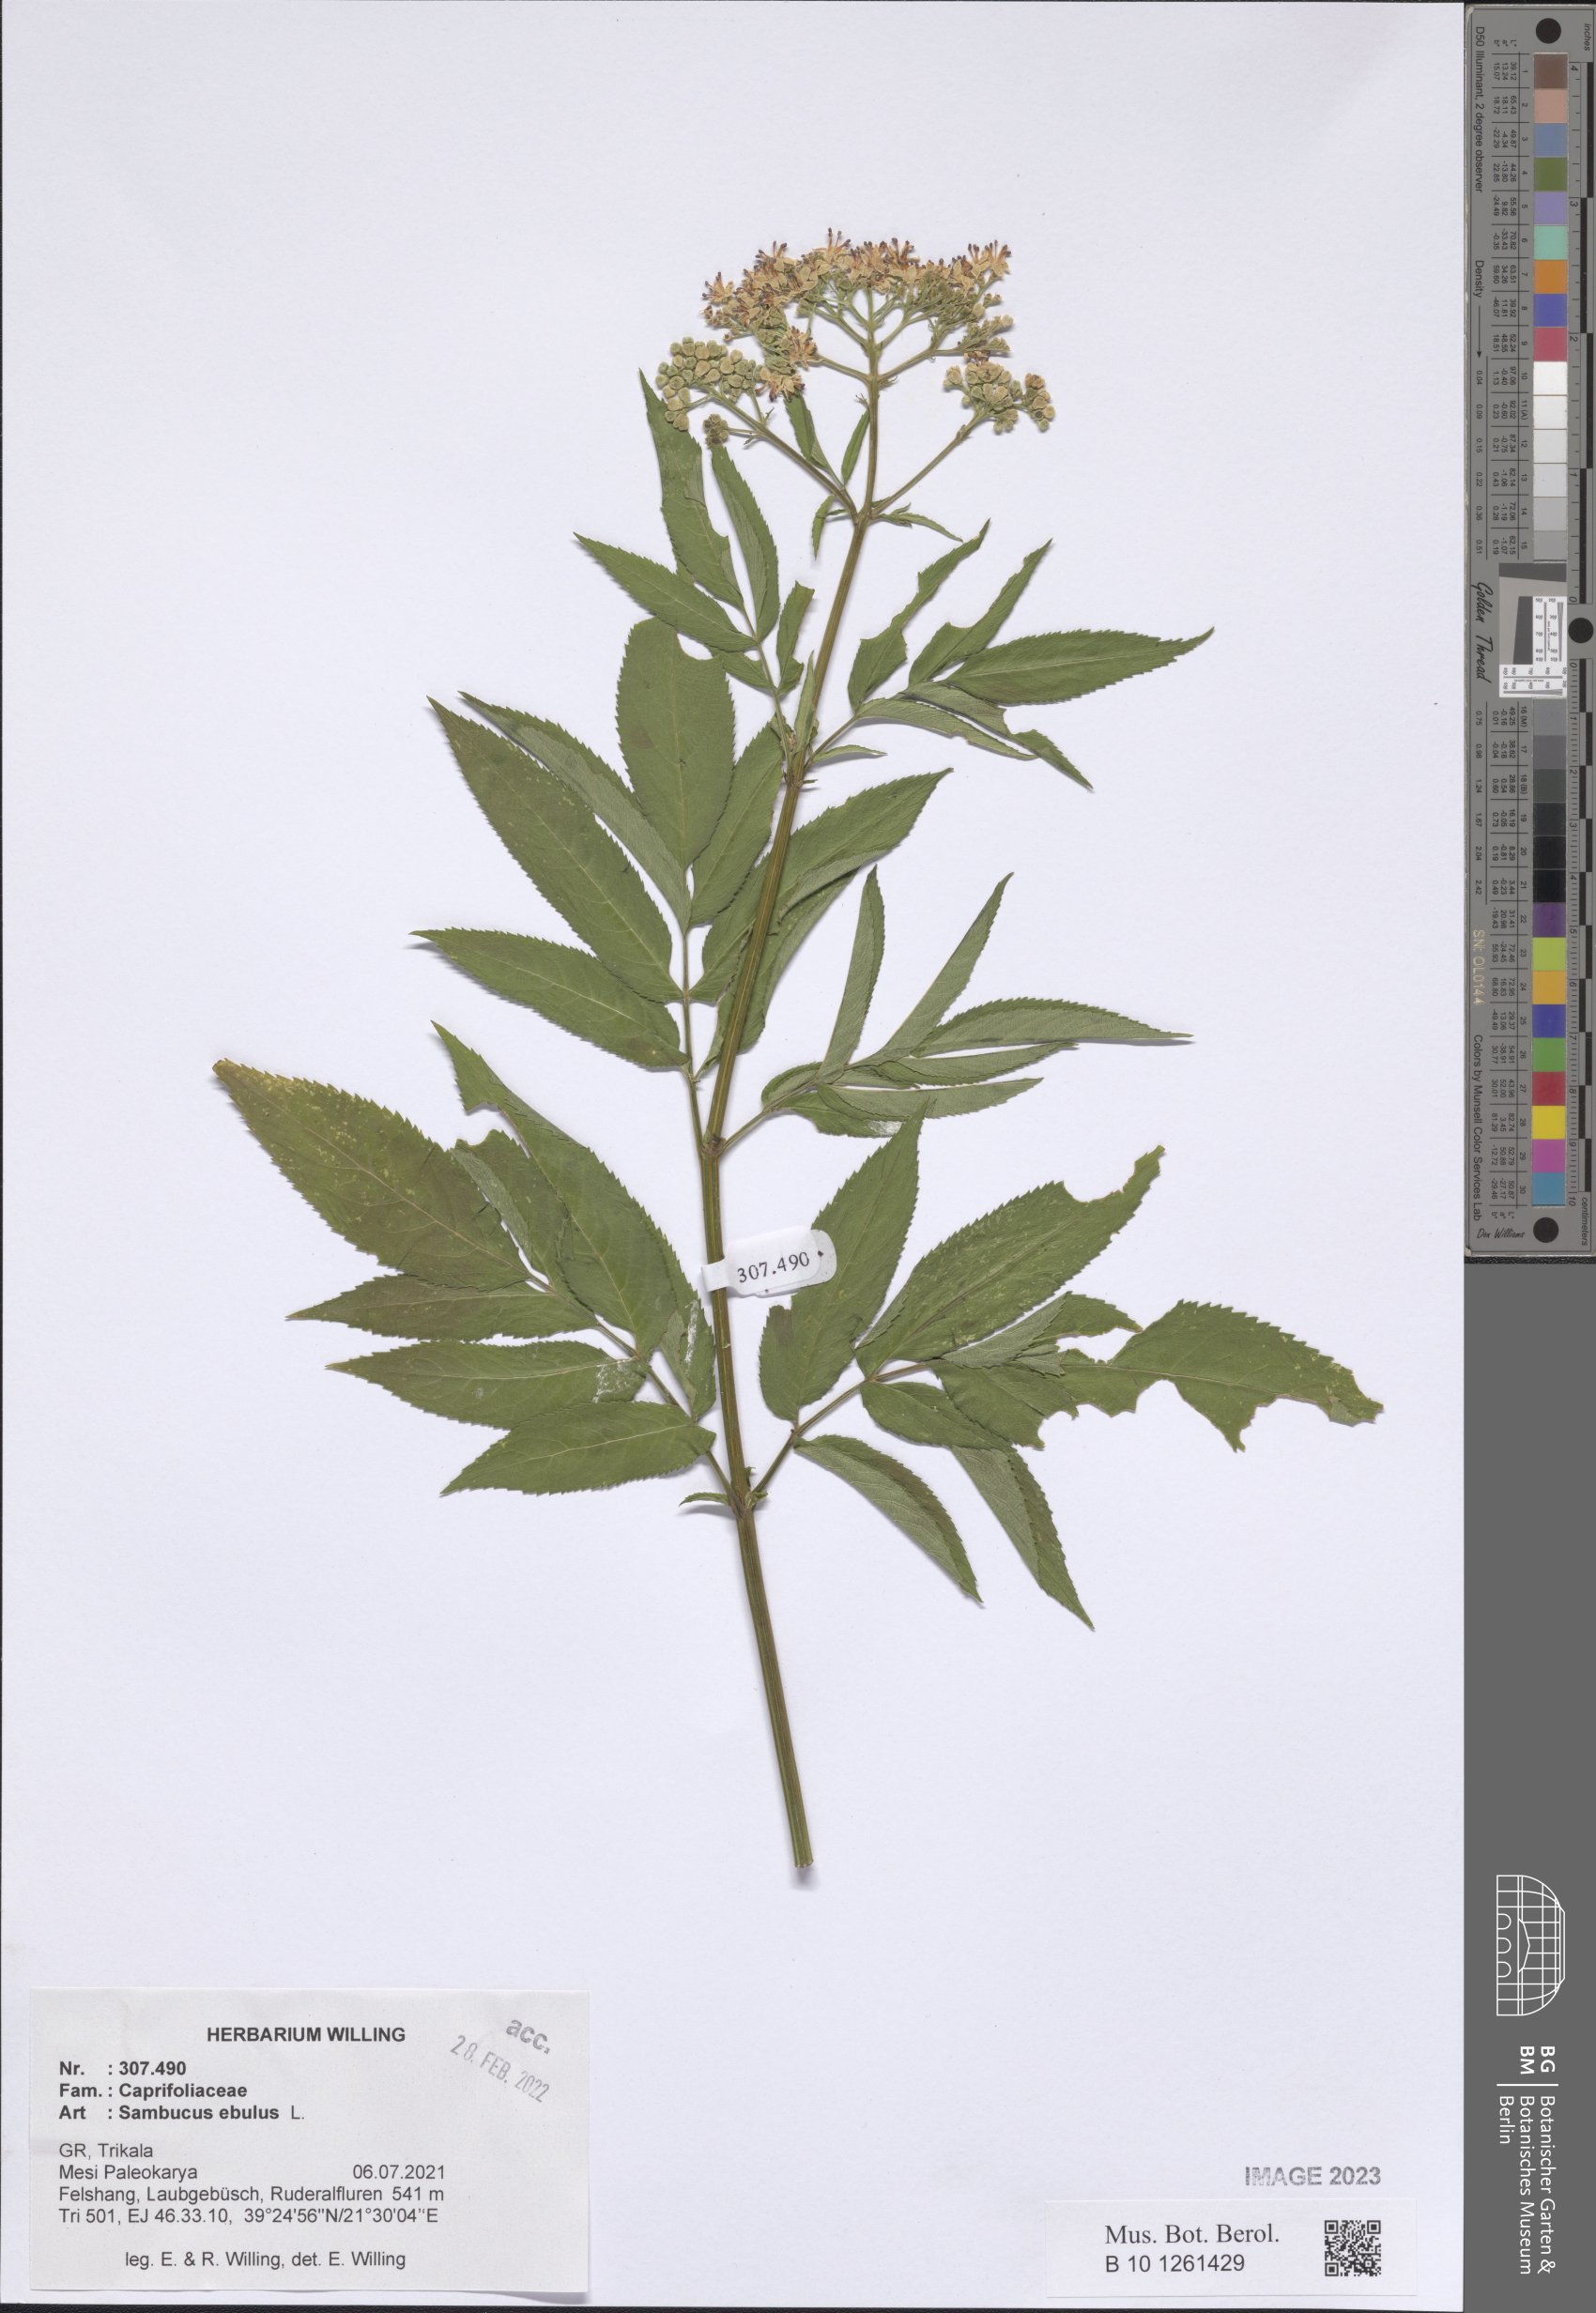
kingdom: Plantae
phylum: Tracheophyta
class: Magnoliopsida
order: Dipsacales
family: Viburnaceae
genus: Sambucus
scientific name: Sambucus ebulus
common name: Dwarf elder
